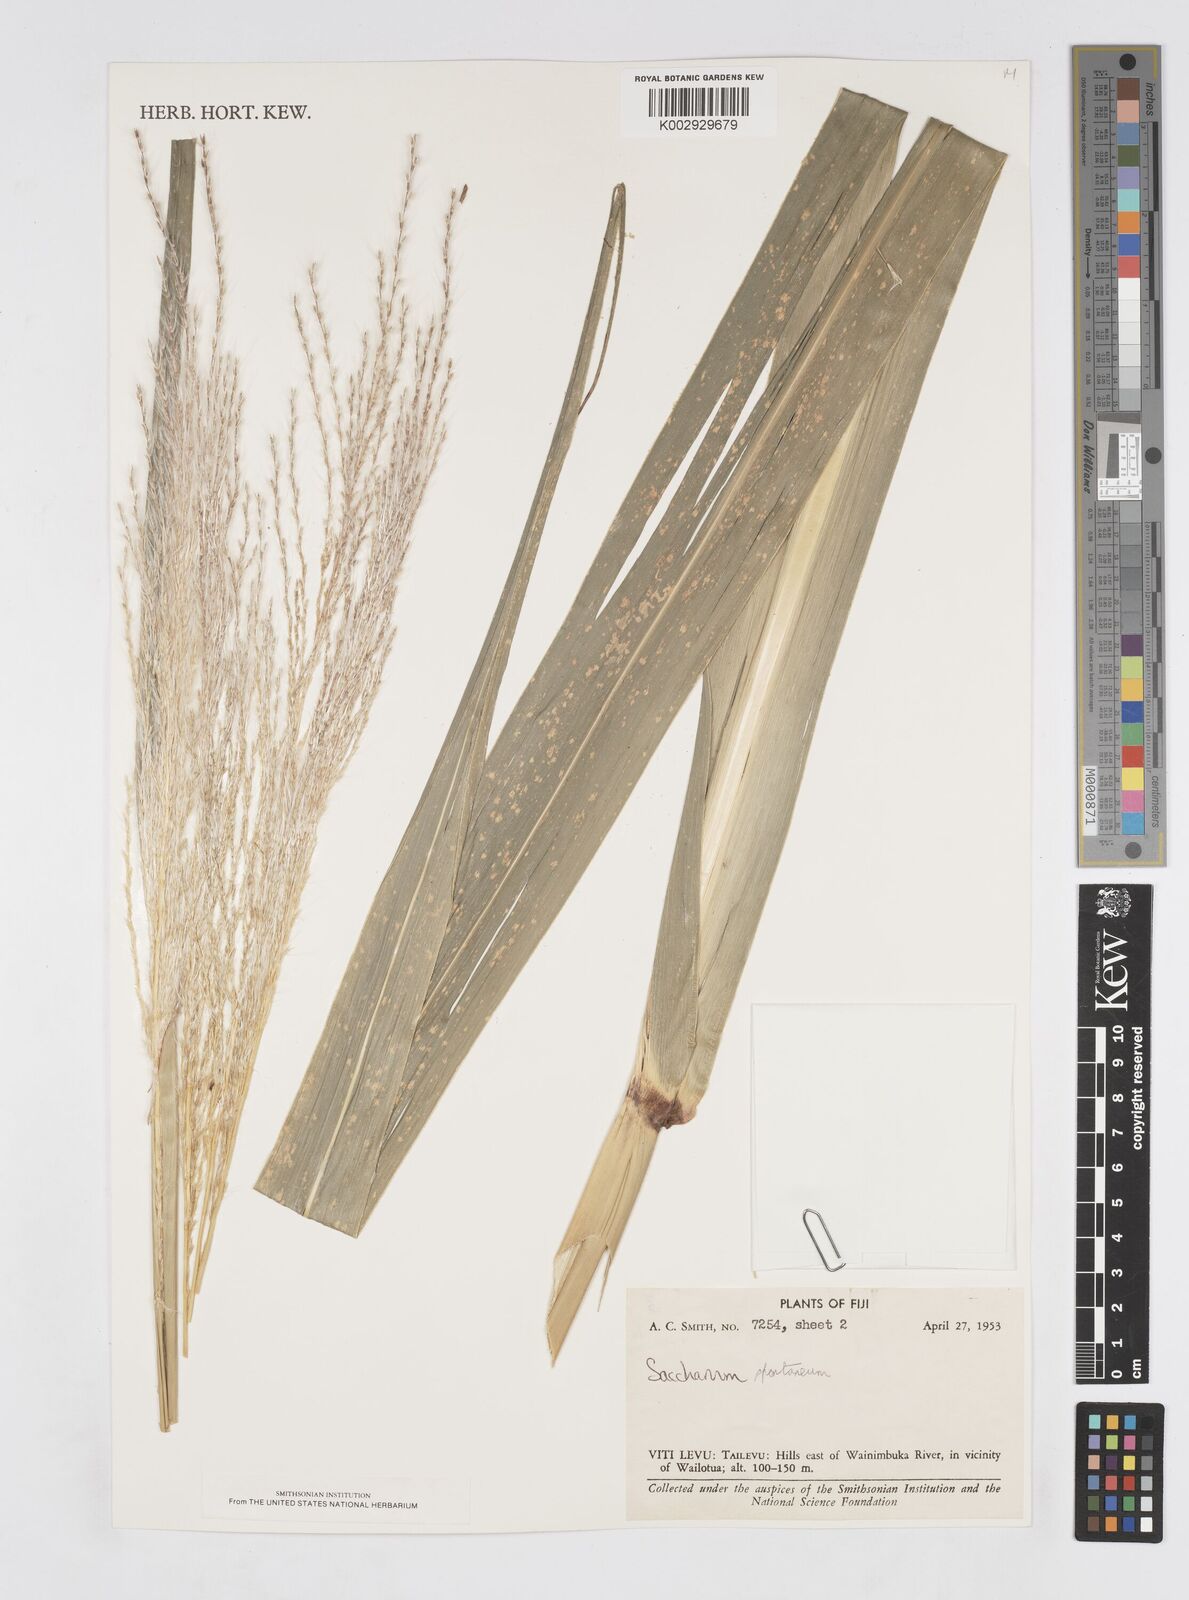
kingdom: Plantae
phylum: Tracheophyta
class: Liliopsida
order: Poales
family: Poaceae
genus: Saccharum
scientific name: Saccharum spontaneum
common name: Wild sugarcane
